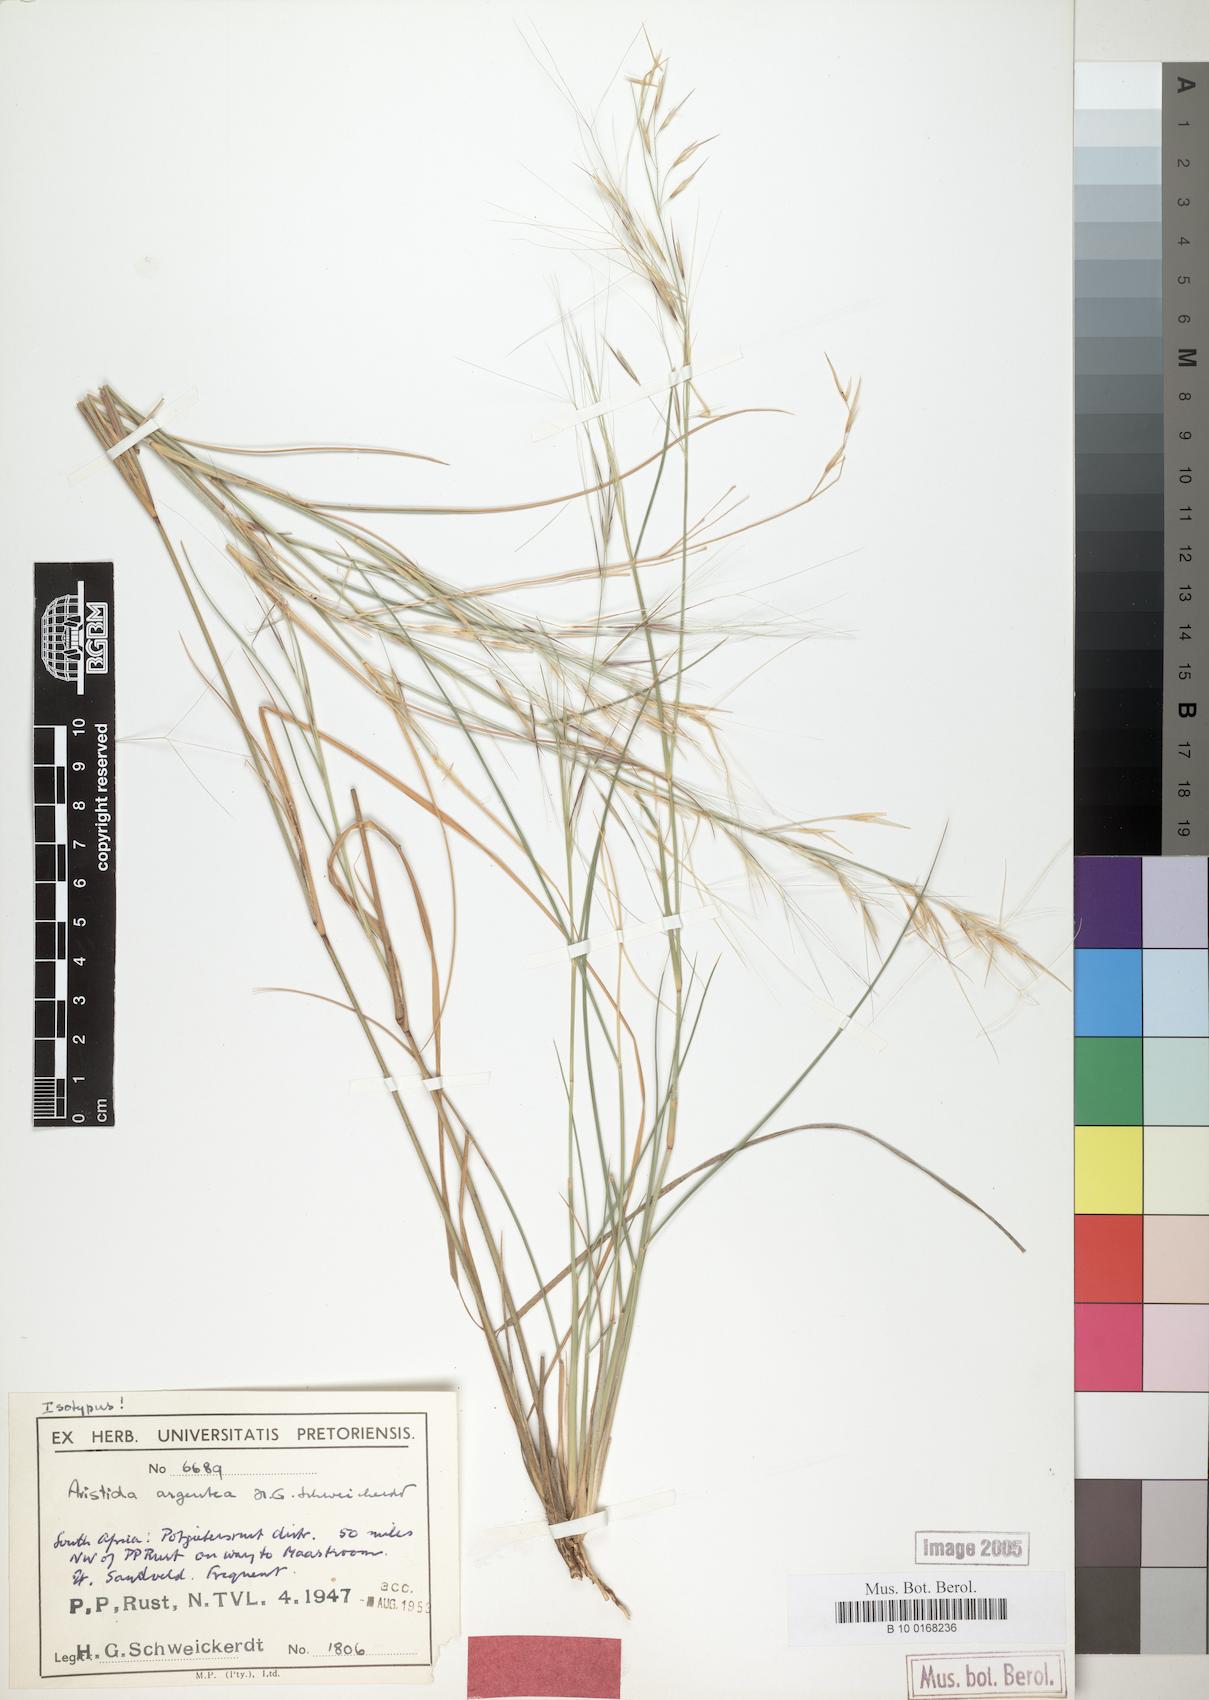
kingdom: Plantae
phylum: Tracheophyta
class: Liliopsida
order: Poales
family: Poaceae
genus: Aristida
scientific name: Aristida mollissima
